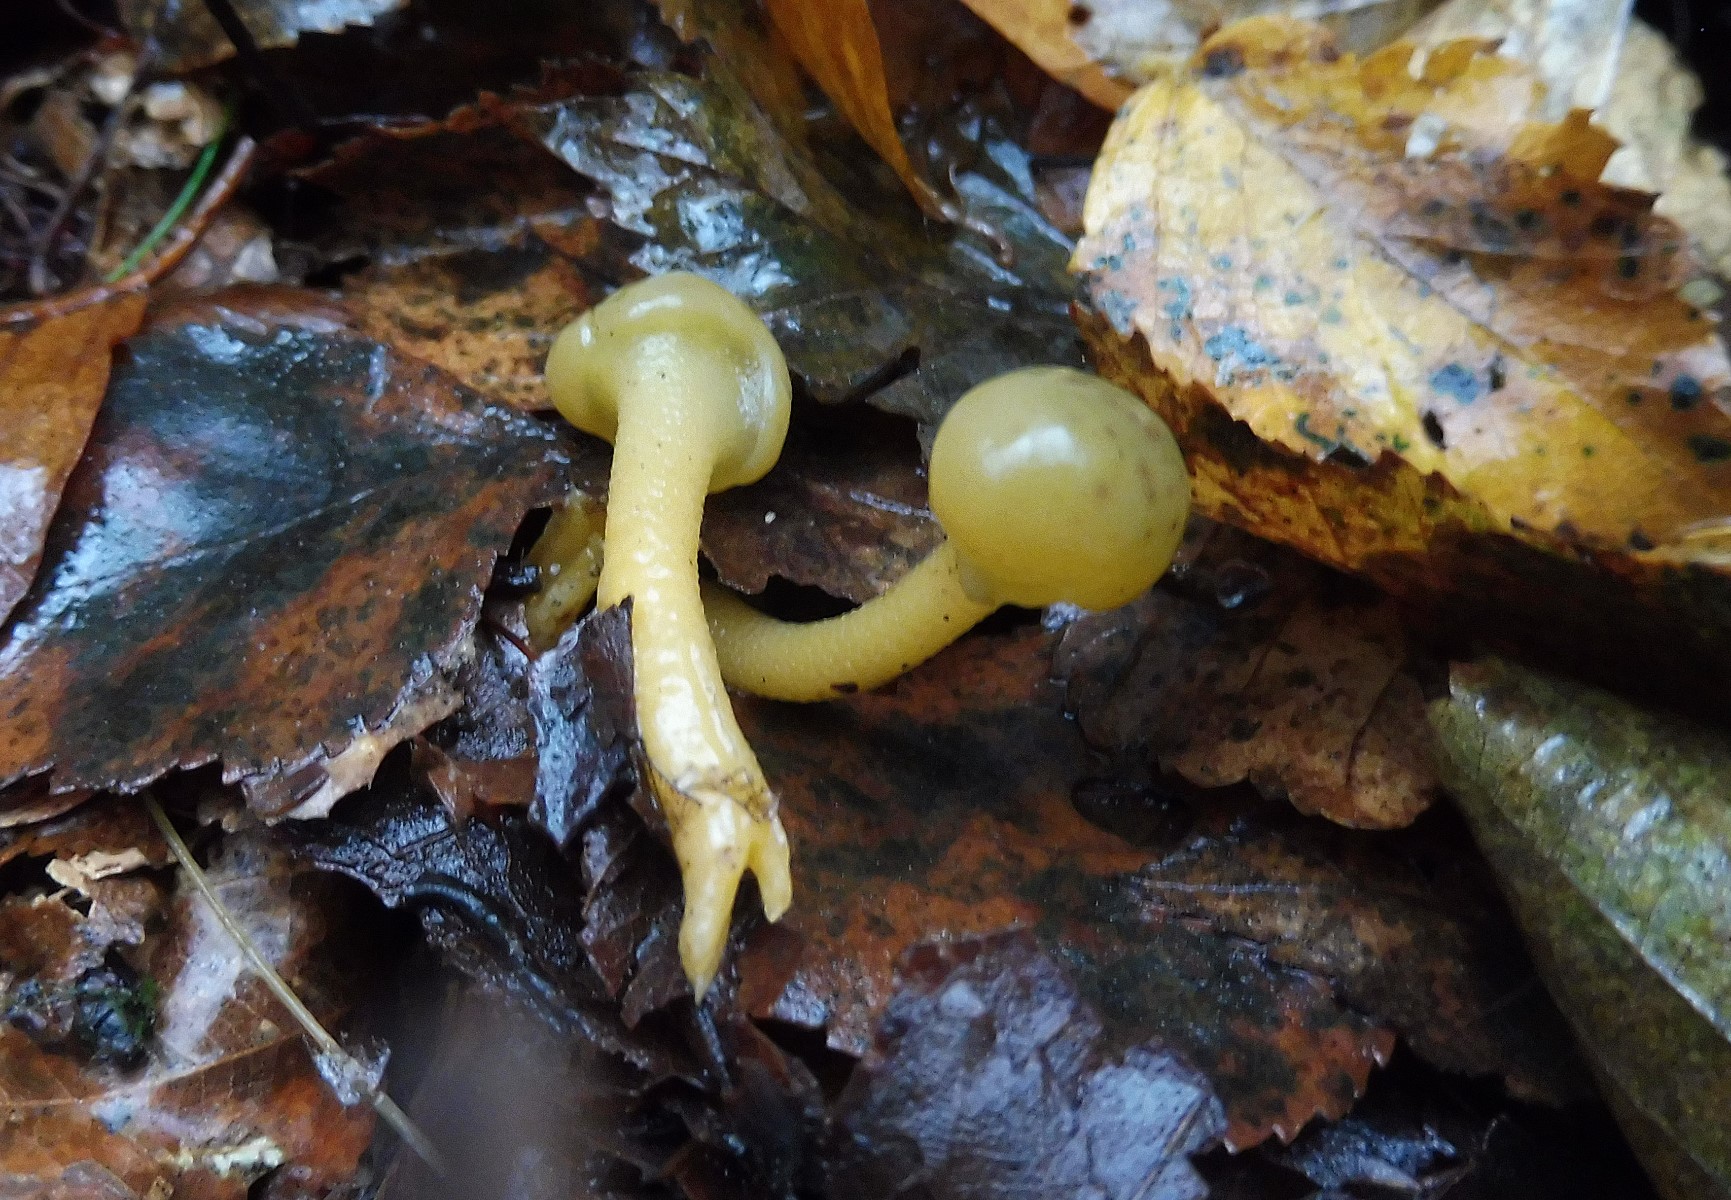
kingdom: Fungi
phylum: Ascomycota
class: Leotiomycetes
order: Leotiales
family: Leotiaceae
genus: Leotia
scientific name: Leotia lubrica
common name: ravsvamp
